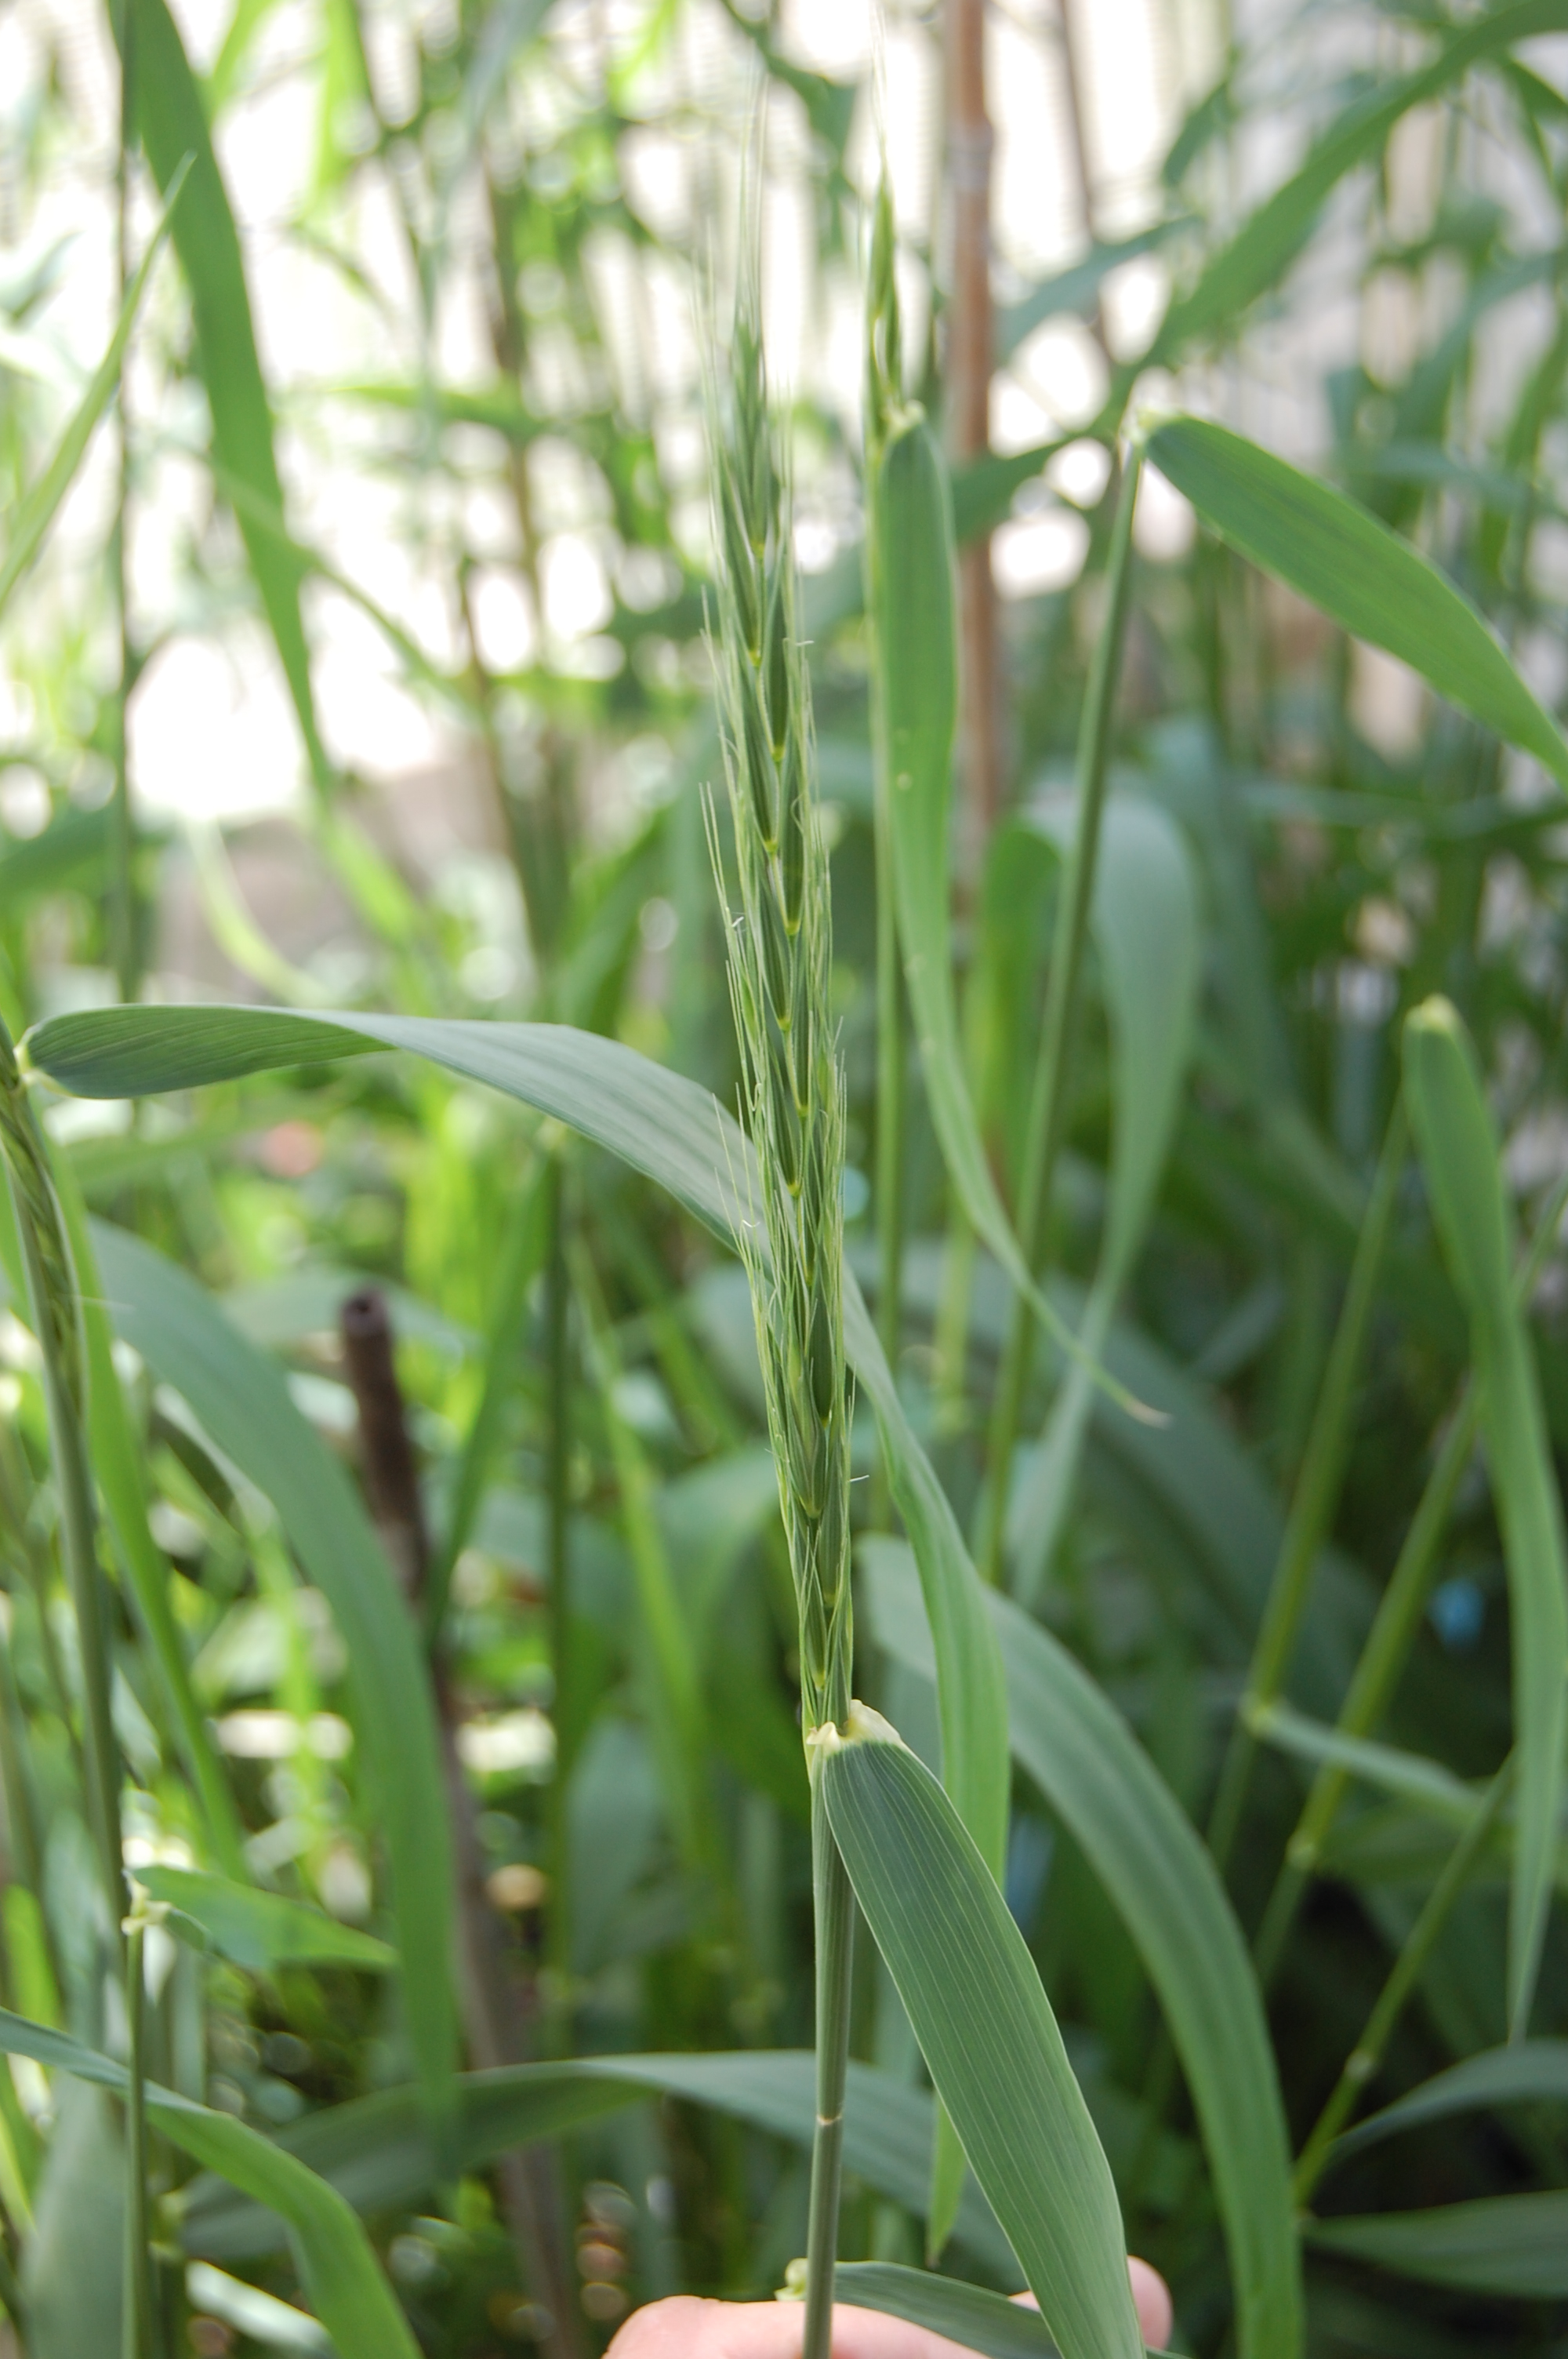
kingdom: Plantae
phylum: Tracheophyta
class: Liliopsida
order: Poales
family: Poaceae
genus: Elymus
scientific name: Elymus drobovii
